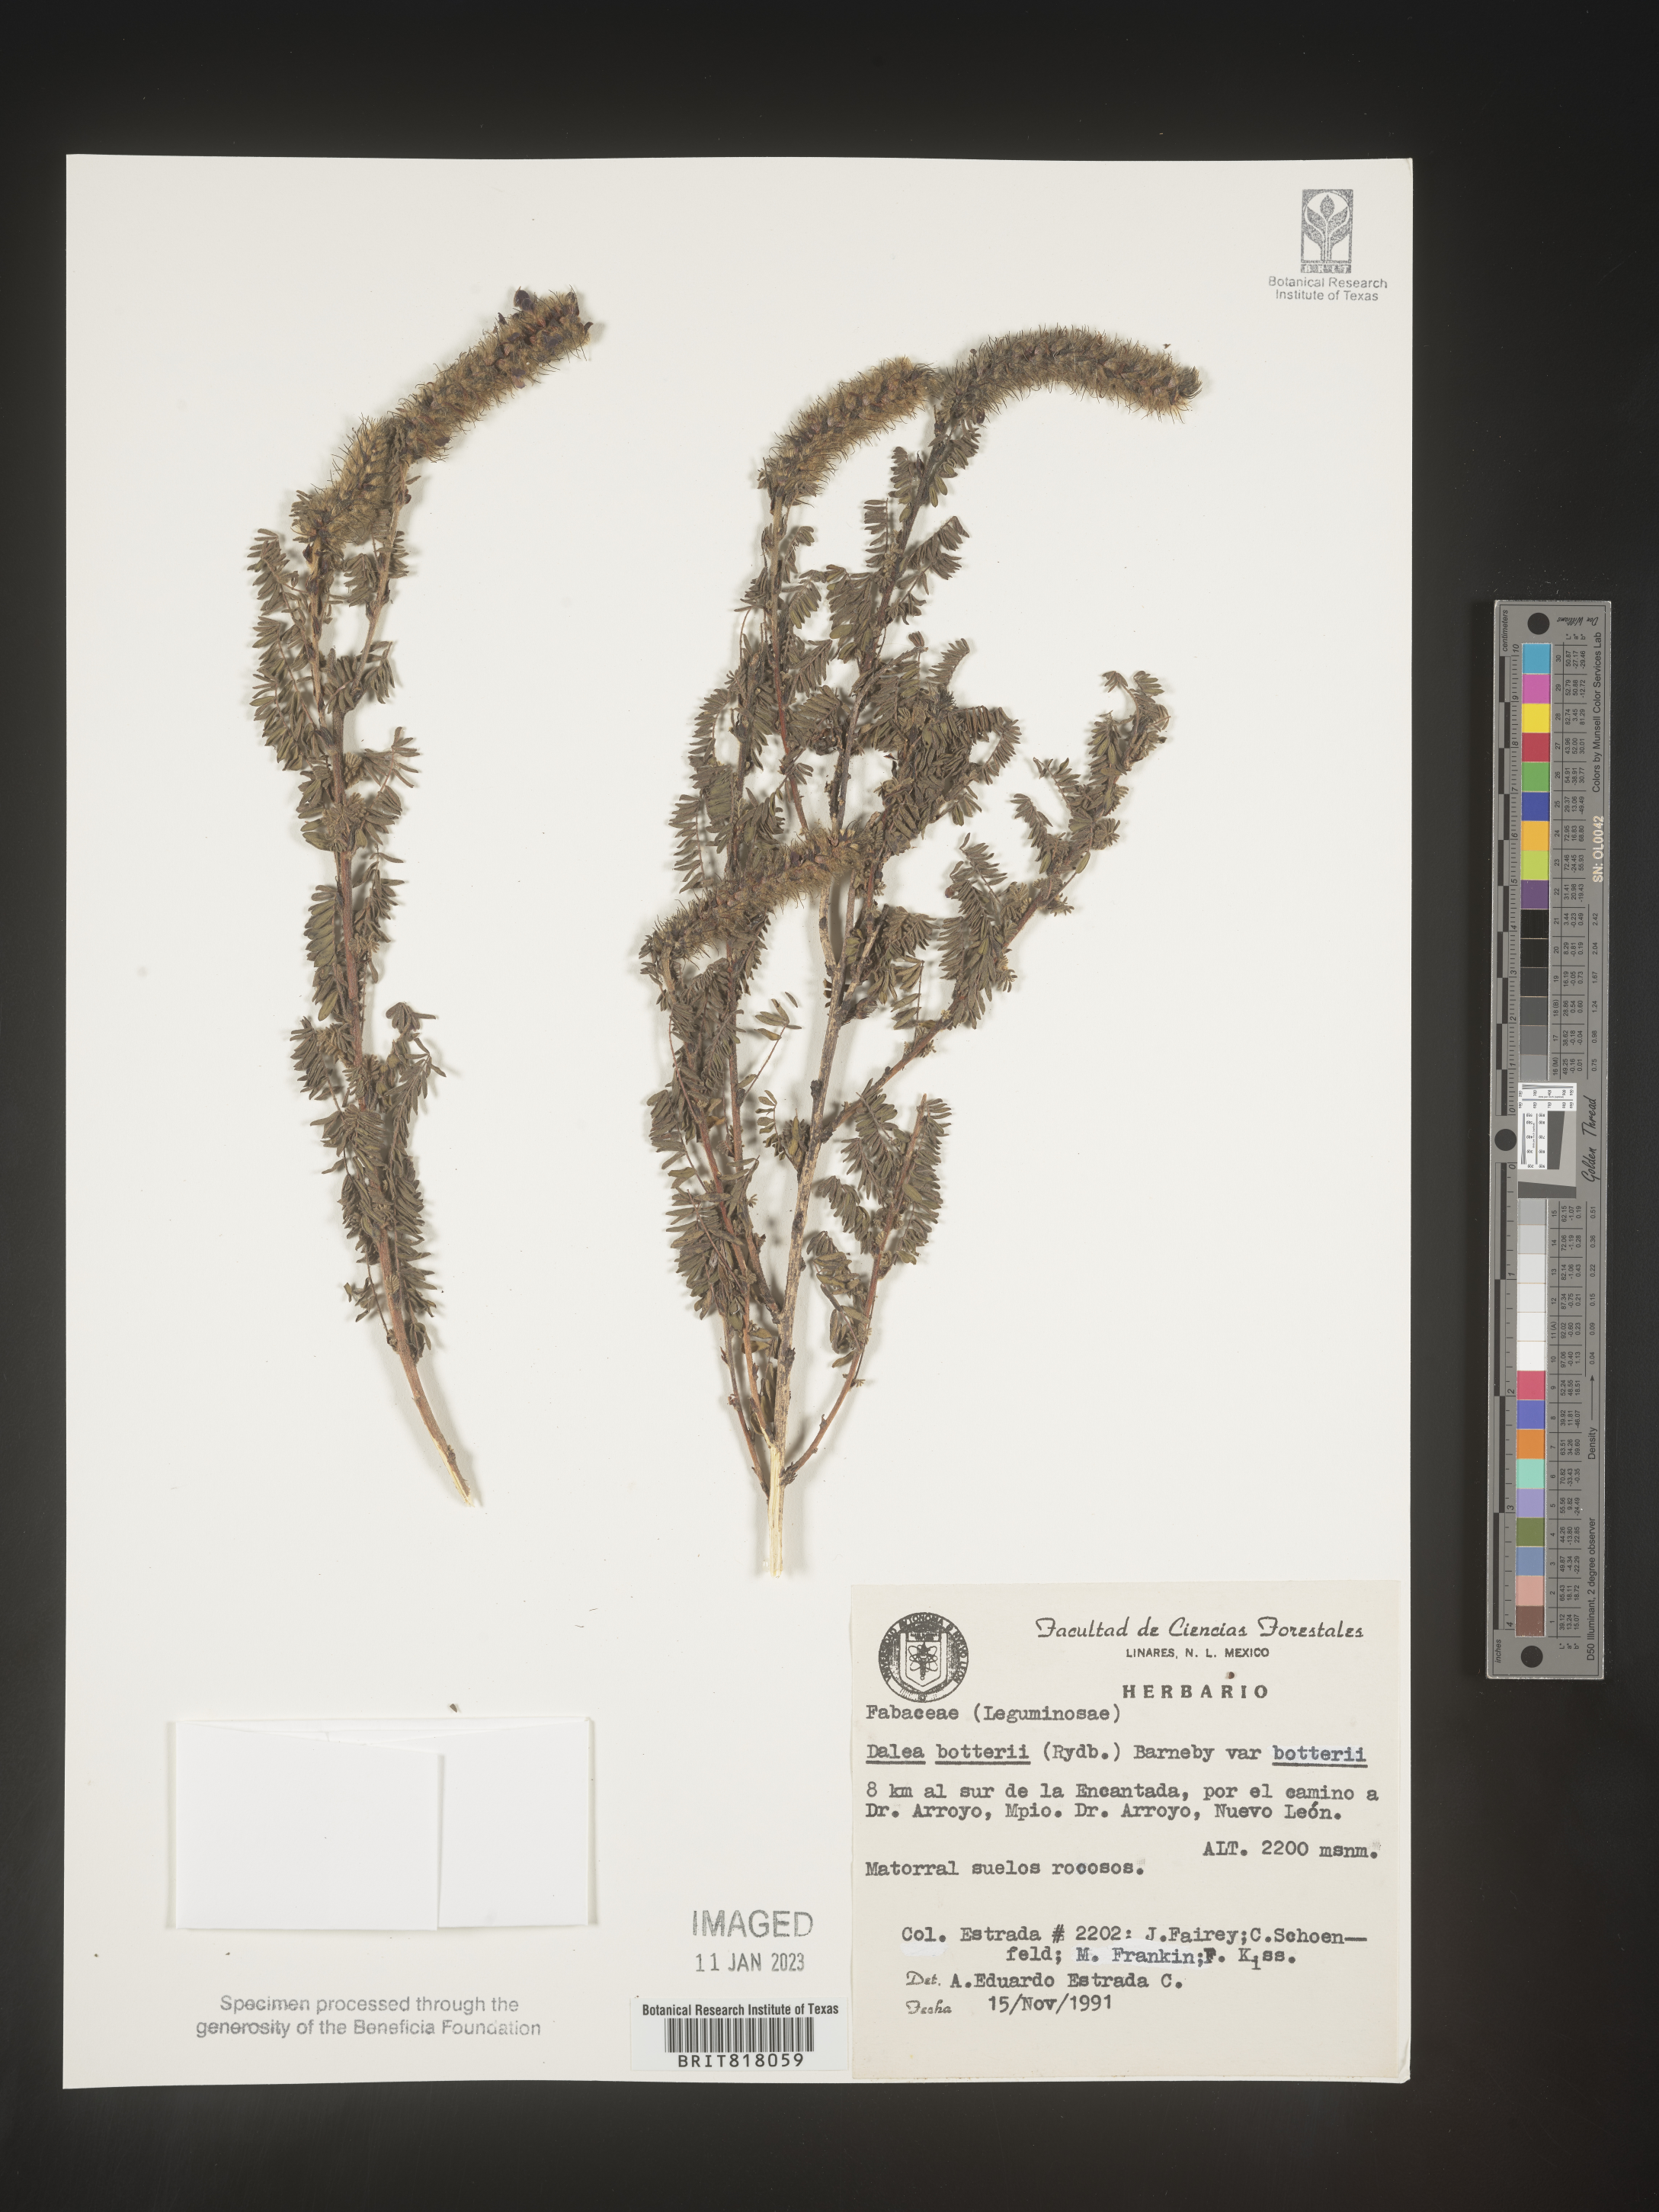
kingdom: Plantae
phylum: Tracheophyta
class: Magnoliopsida
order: Fabales
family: Fabaceae
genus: Dalea
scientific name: Dalea
